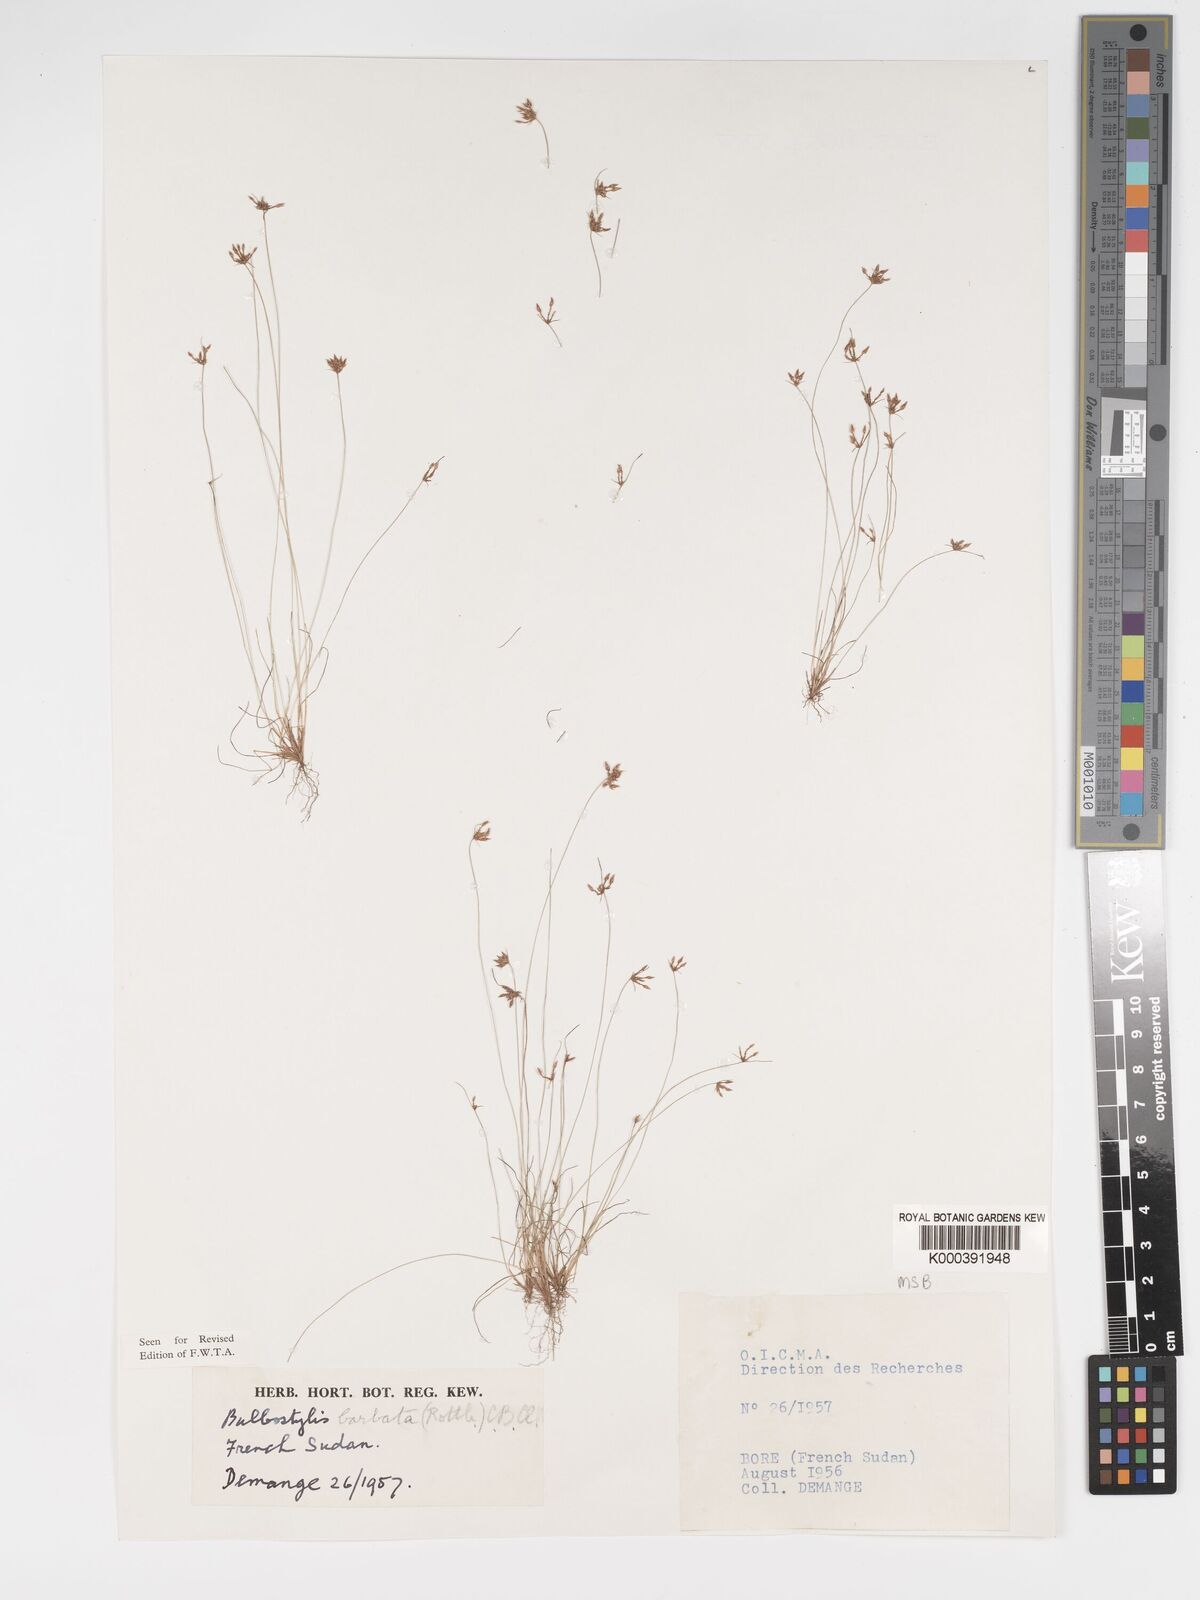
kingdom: Plantae
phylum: Tracheophyta
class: Liliopsida
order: Poales
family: Cyperaceae
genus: Bulbostylis
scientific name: Bulbostylis barbata
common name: Watergrass
